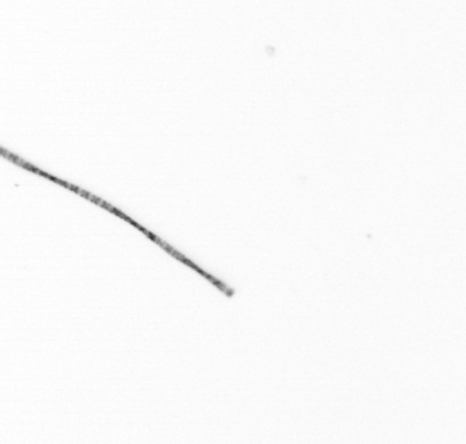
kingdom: Chromista
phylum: Ochrophyta
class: Bacillariophyceae
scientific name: Bacillariophyceae
